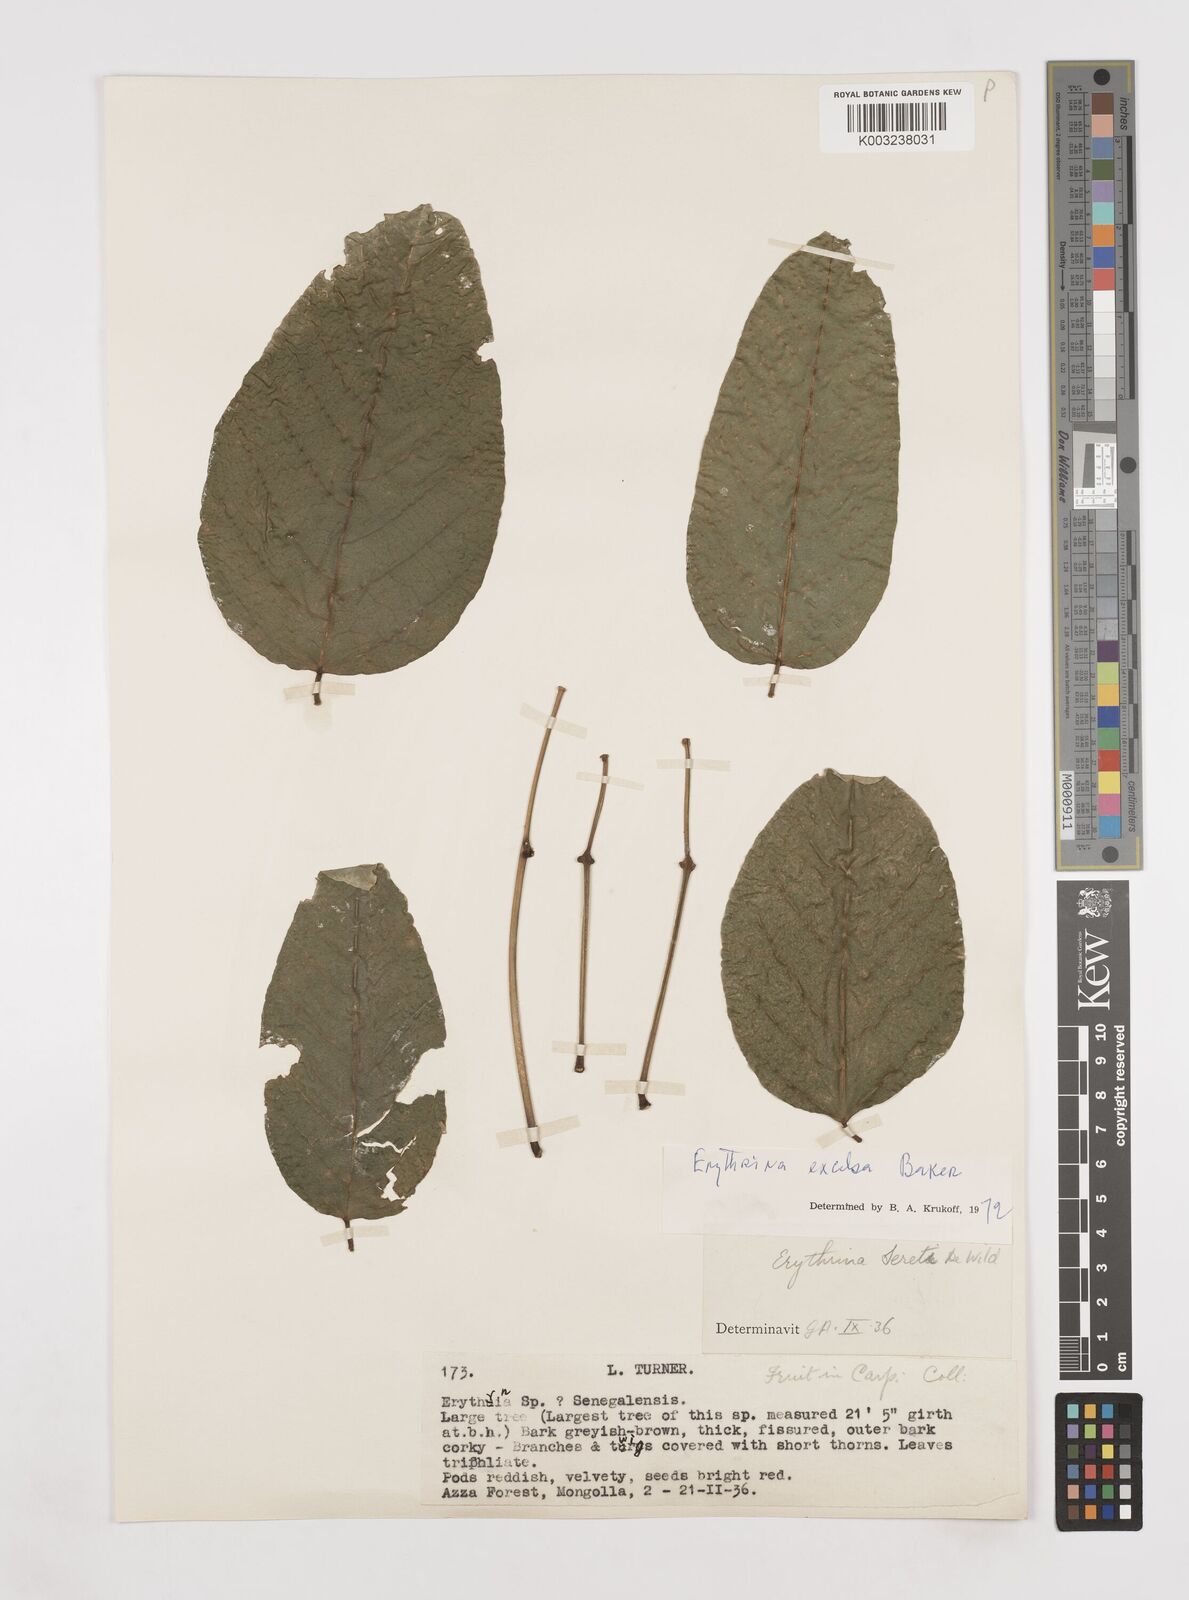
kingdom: Plantae
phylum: Tracheophyta
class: Magnoliopsida
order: Fabales
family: Fabaceae
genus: Erythrina
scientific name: Erythrina excelsa
